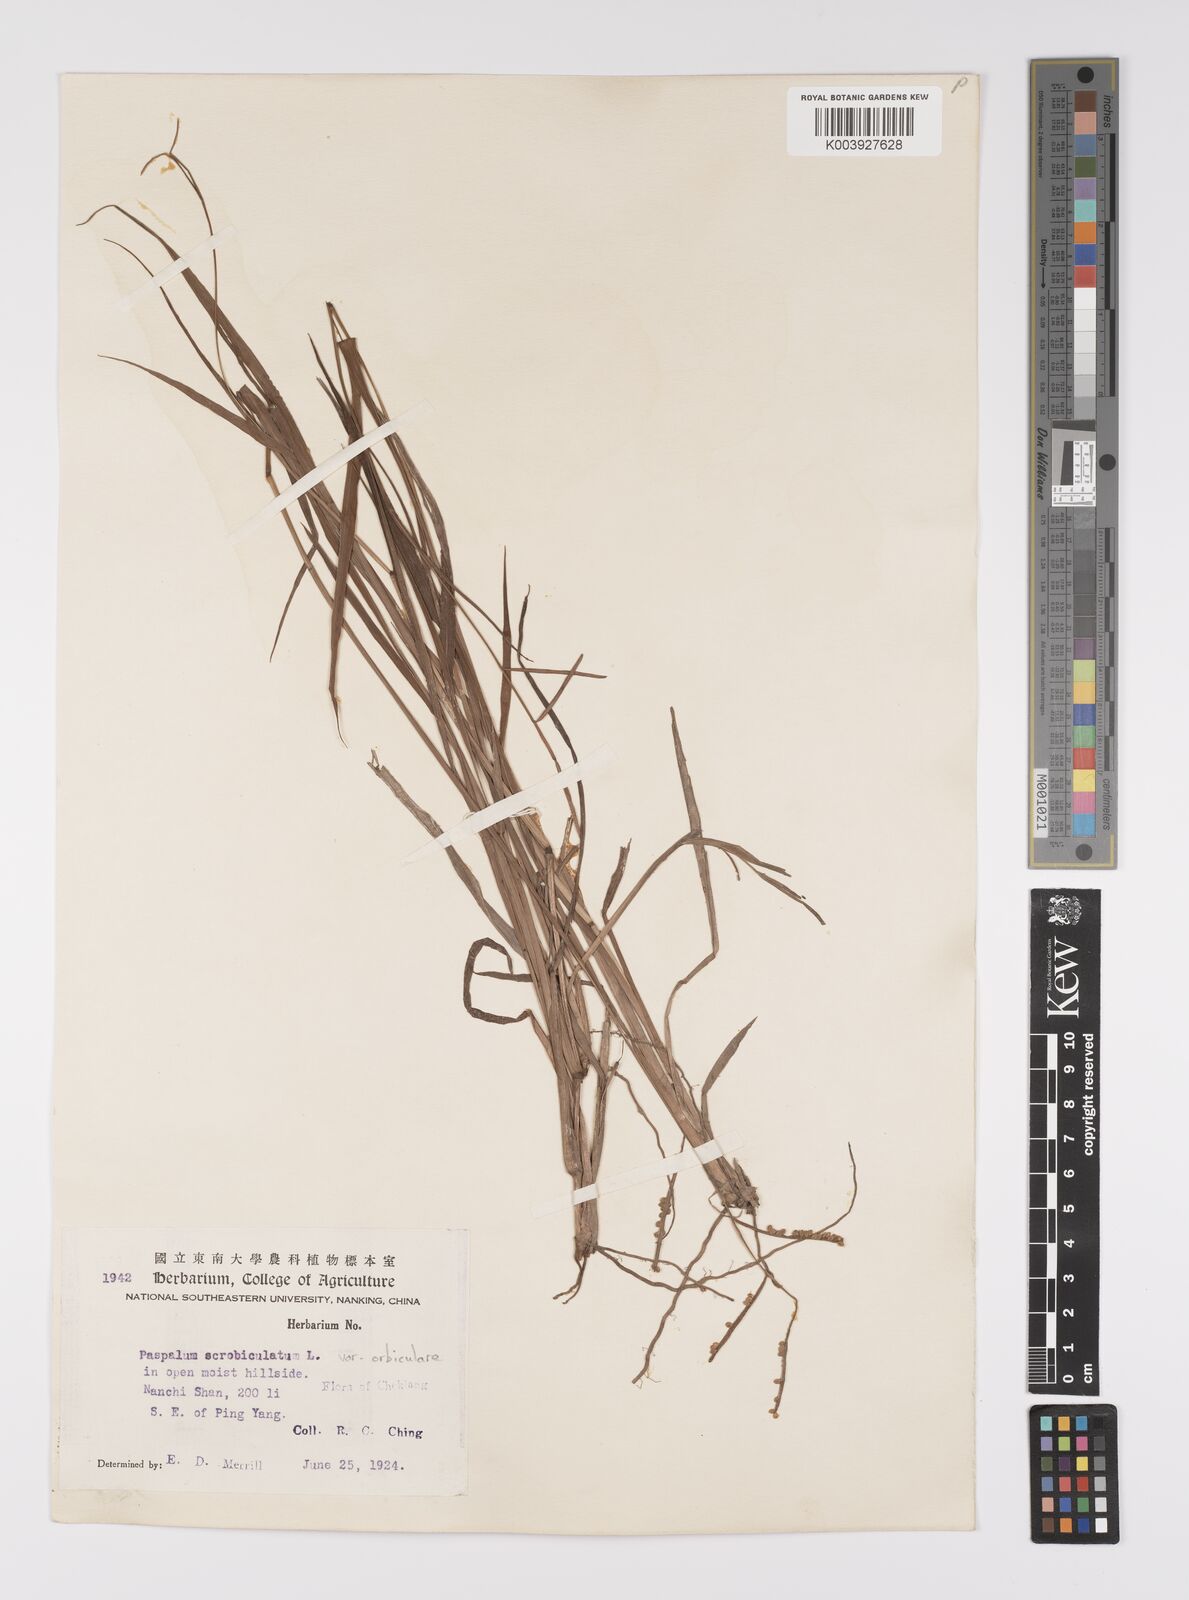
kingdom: Plantae
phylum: Tracheophyta
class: Liliopsida
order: Poales
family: Poaceae
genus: Paspalum
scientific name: Paspalum orbiculare
